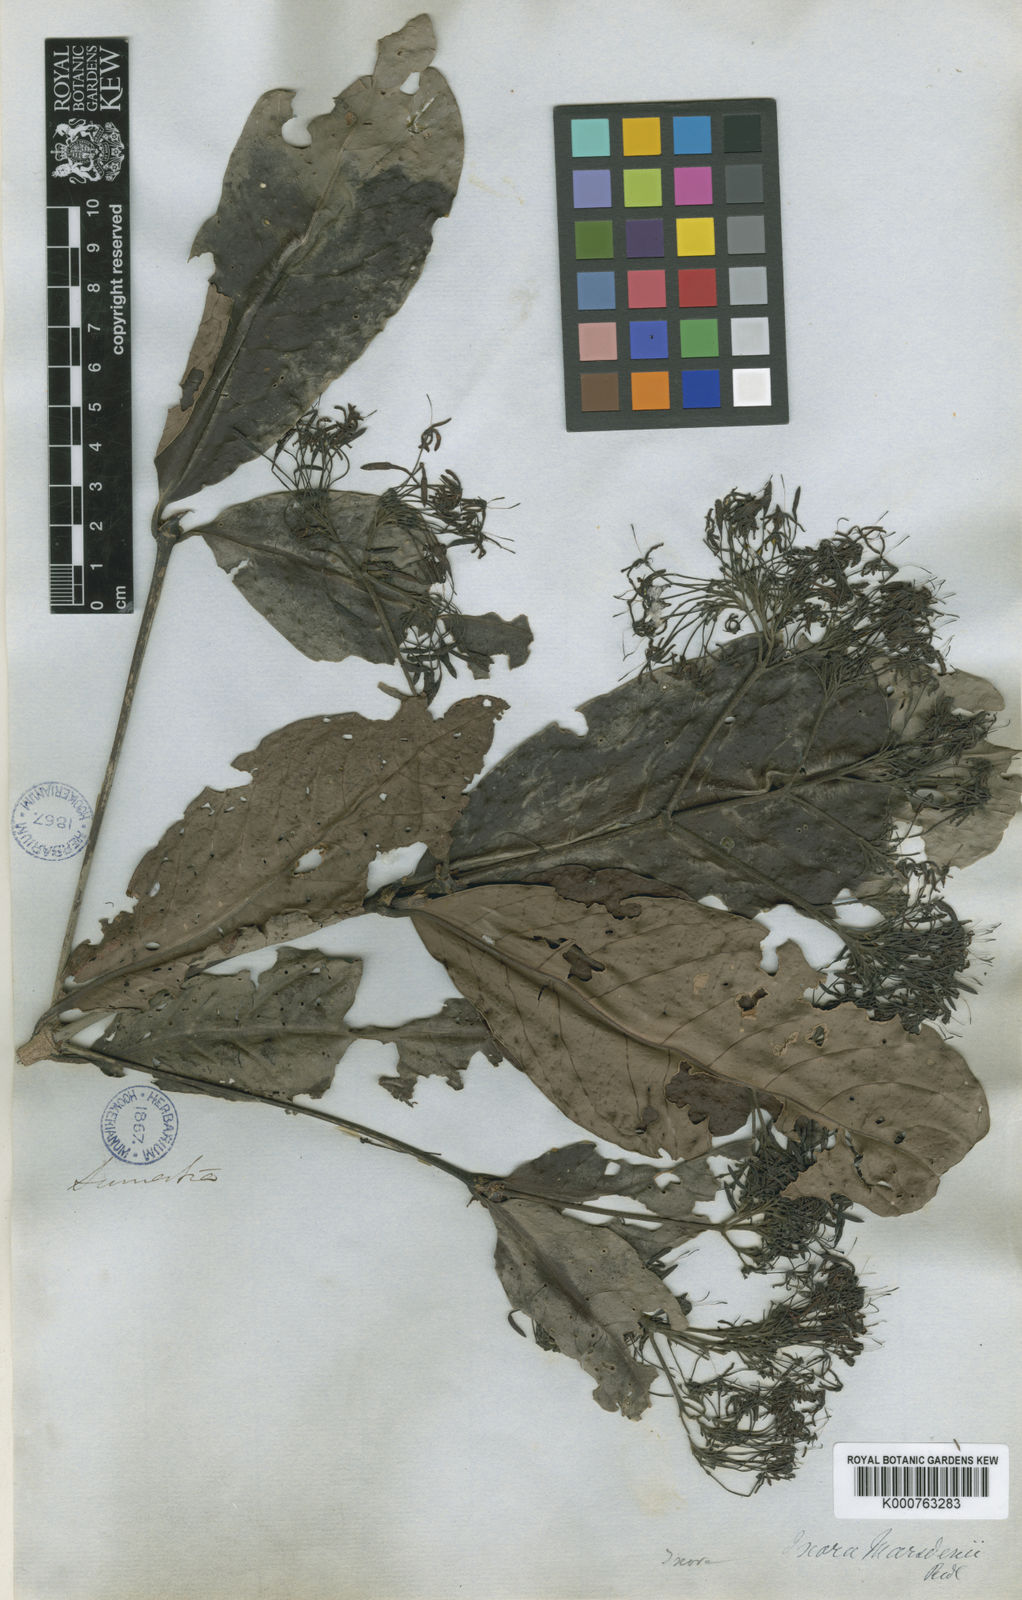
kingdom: Plantae
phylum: Tracheophyta
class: Magnoliopsida
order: Gentianales
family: Rubiaceae
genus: Ixora
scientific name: Ixora marsdenii
